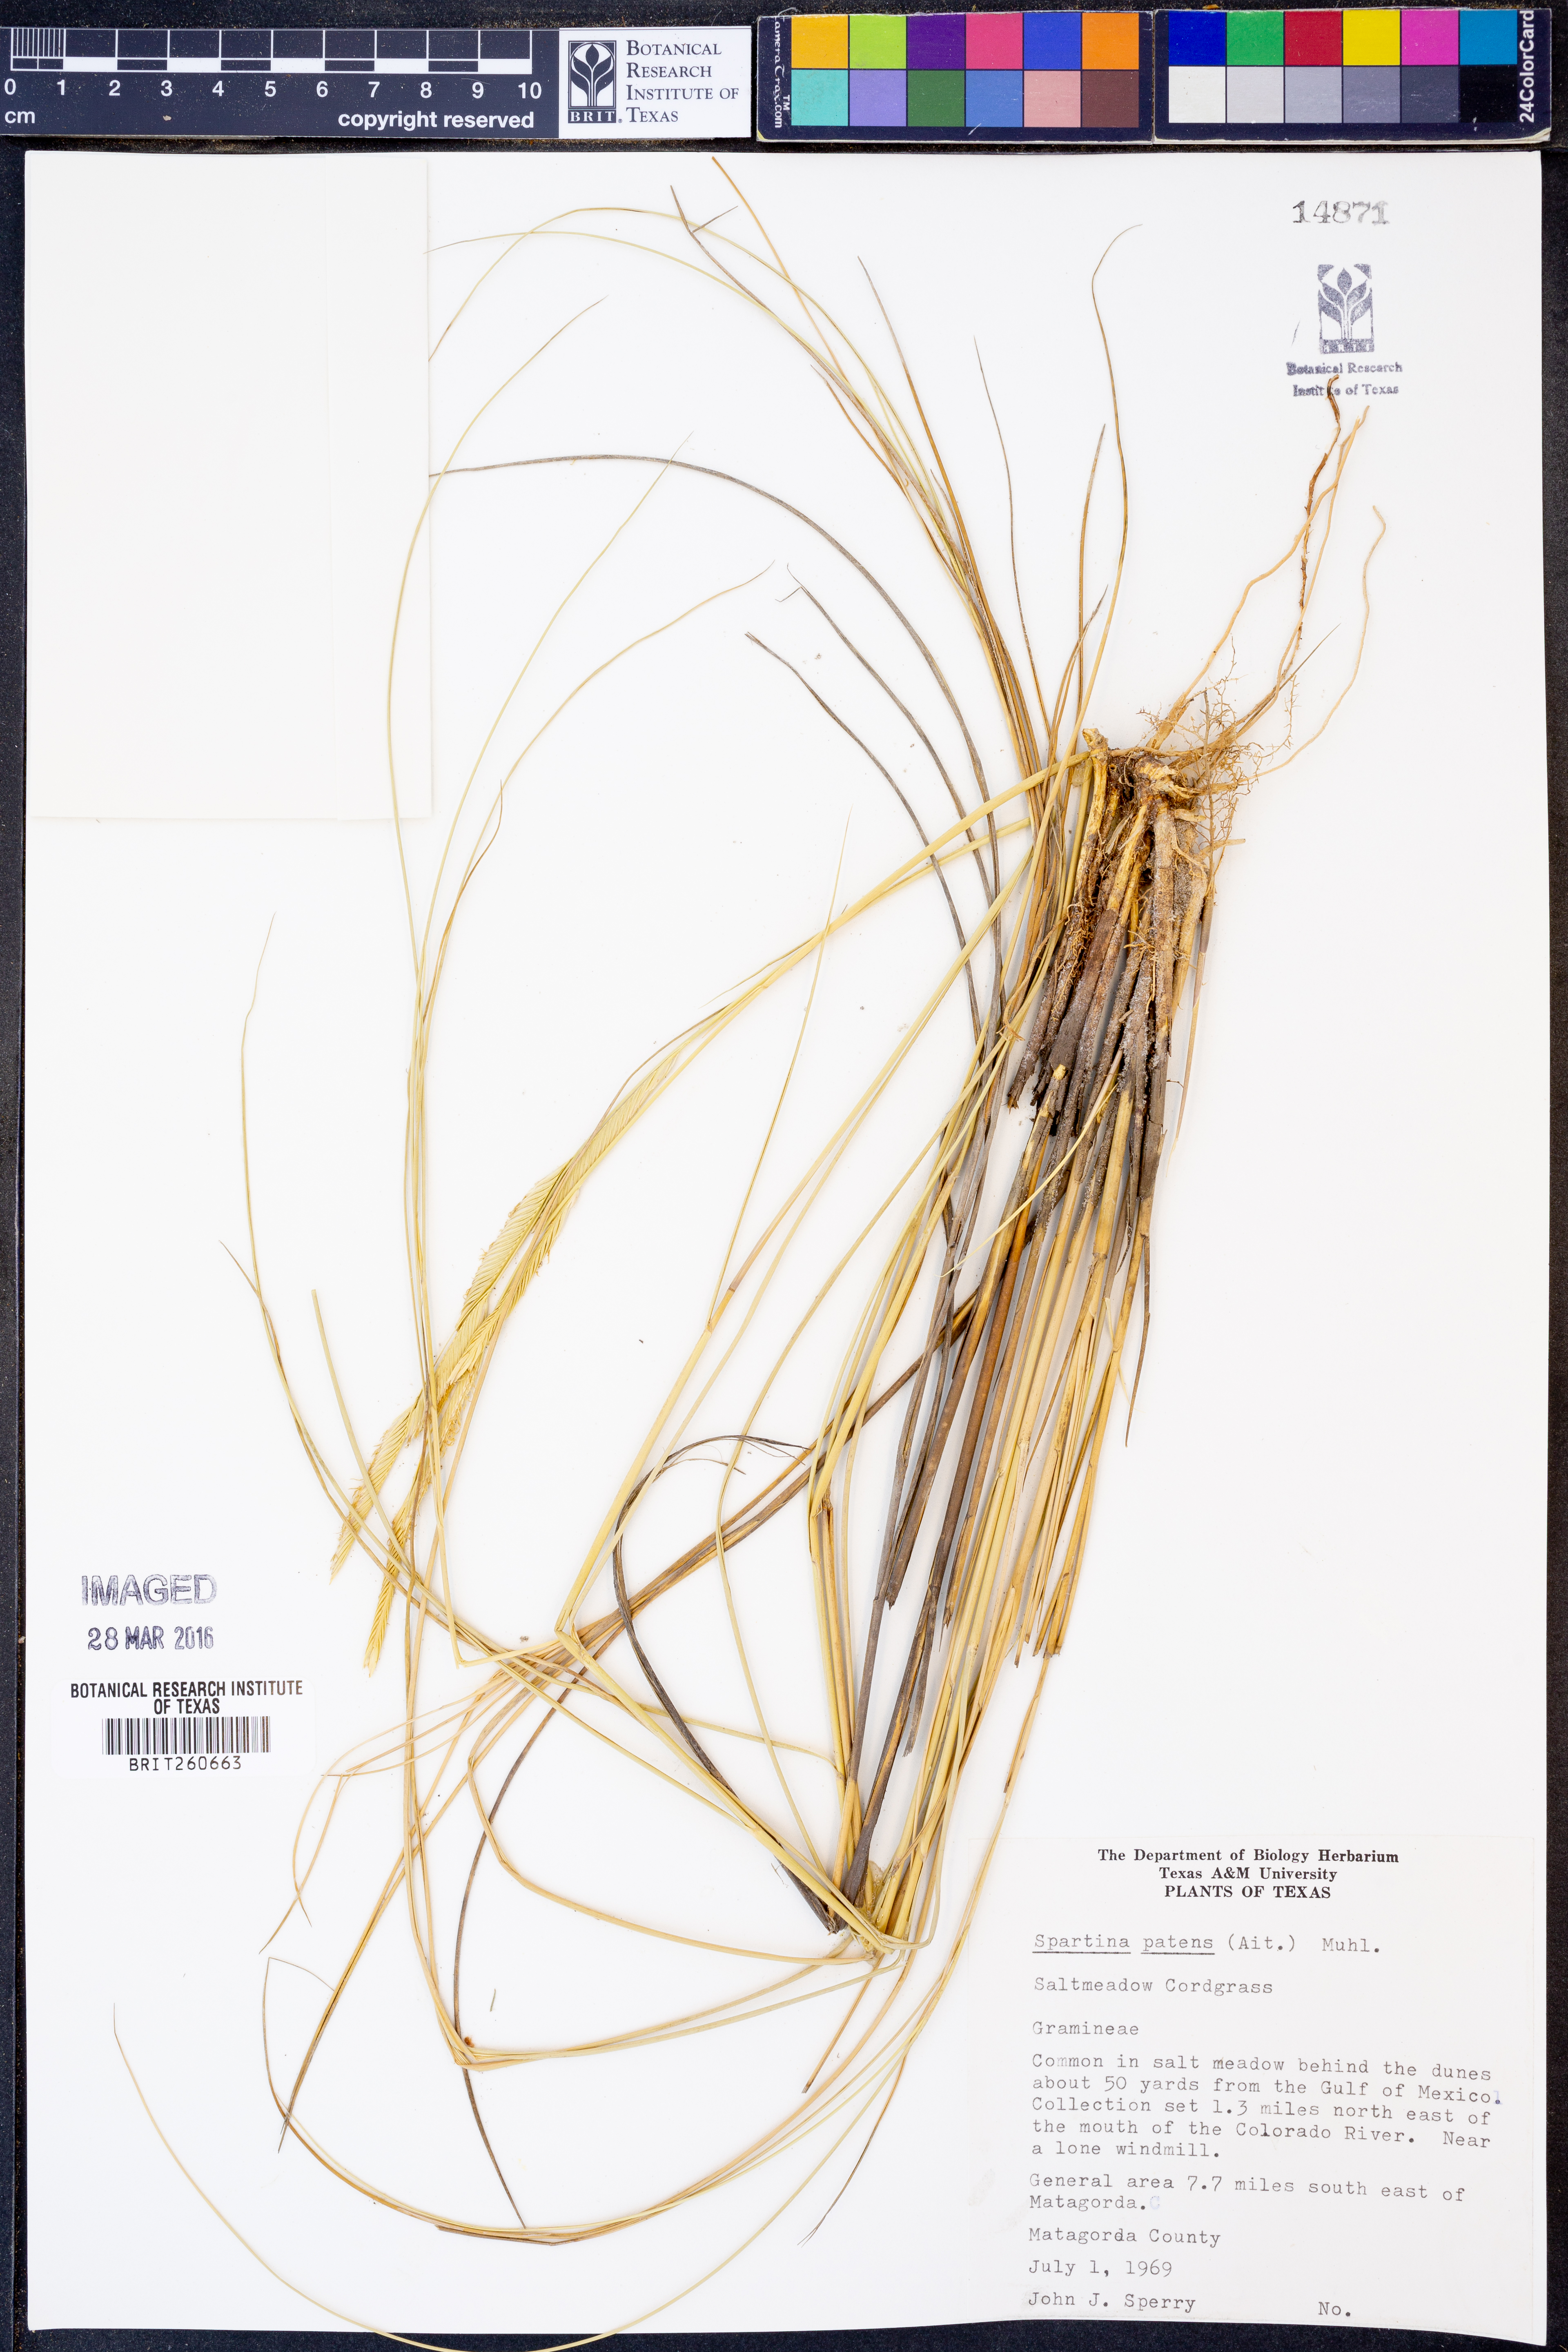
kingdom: Plantae
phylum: Tracheophyta
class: Liliopsida
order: Poales
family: Poaceae
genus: Sporobolus
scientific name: Sporobolus pumilus
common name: Highwater grass
